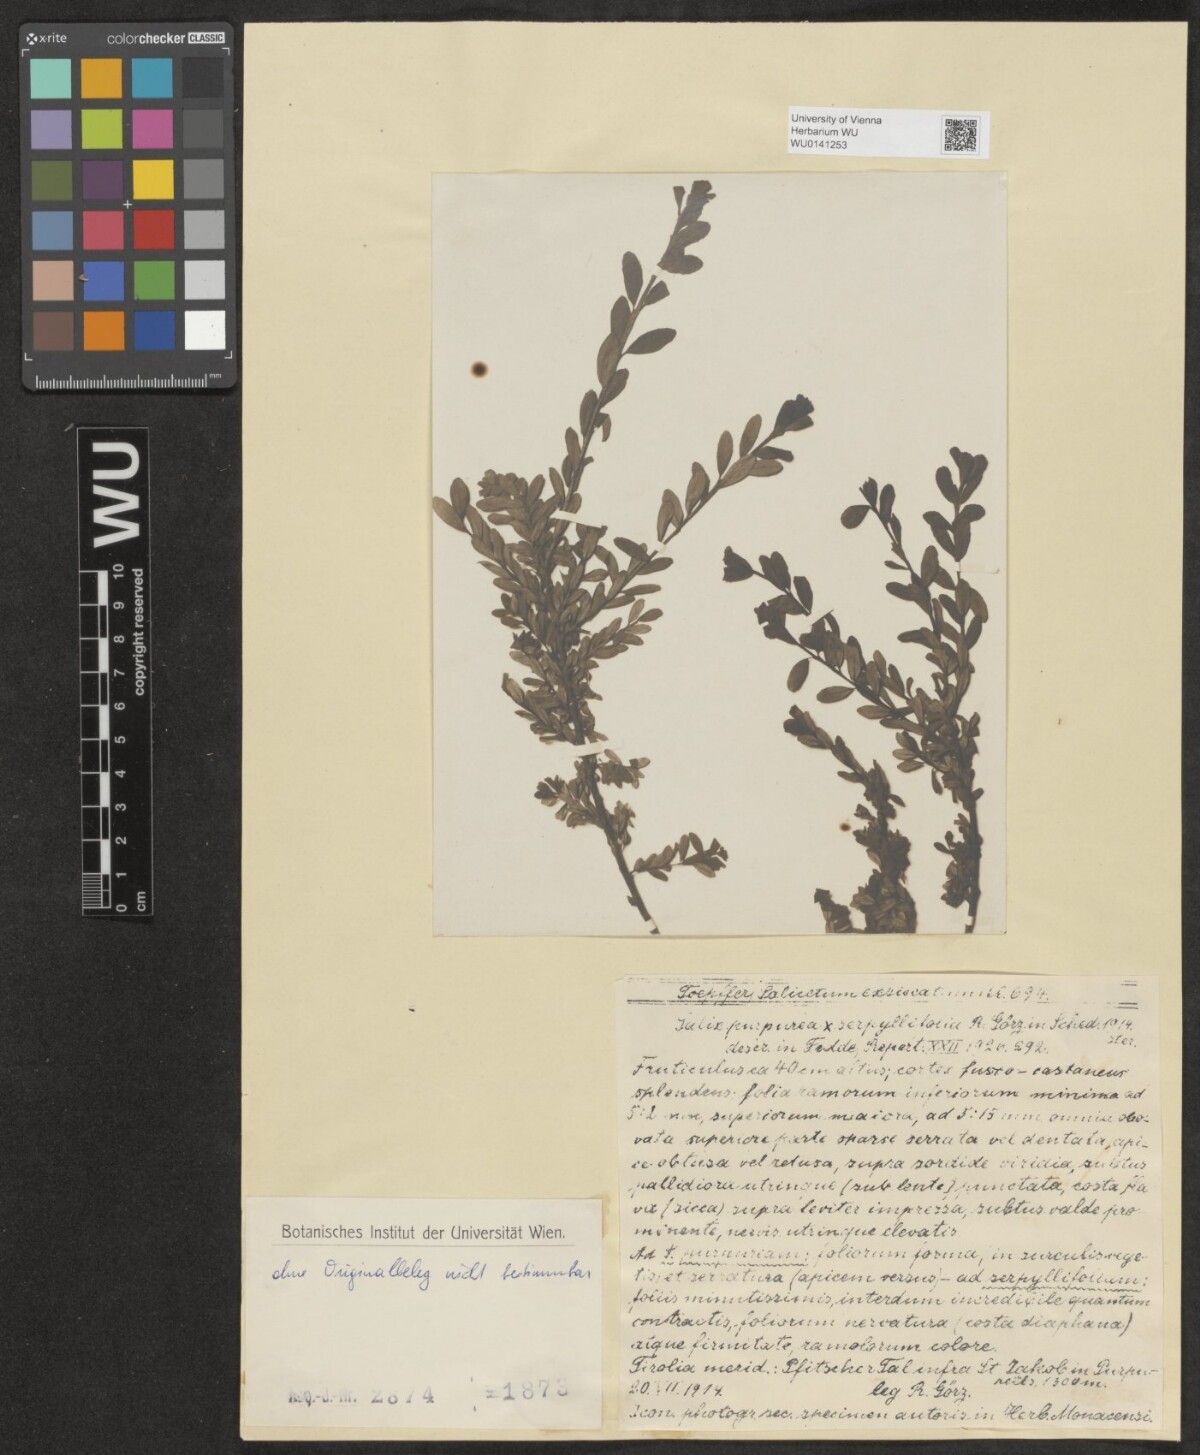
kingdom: Plantae
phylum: Tracheophyta
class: Magnoliopsida
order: Malpighiales
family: Salicaceae
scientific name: Salicaceae
